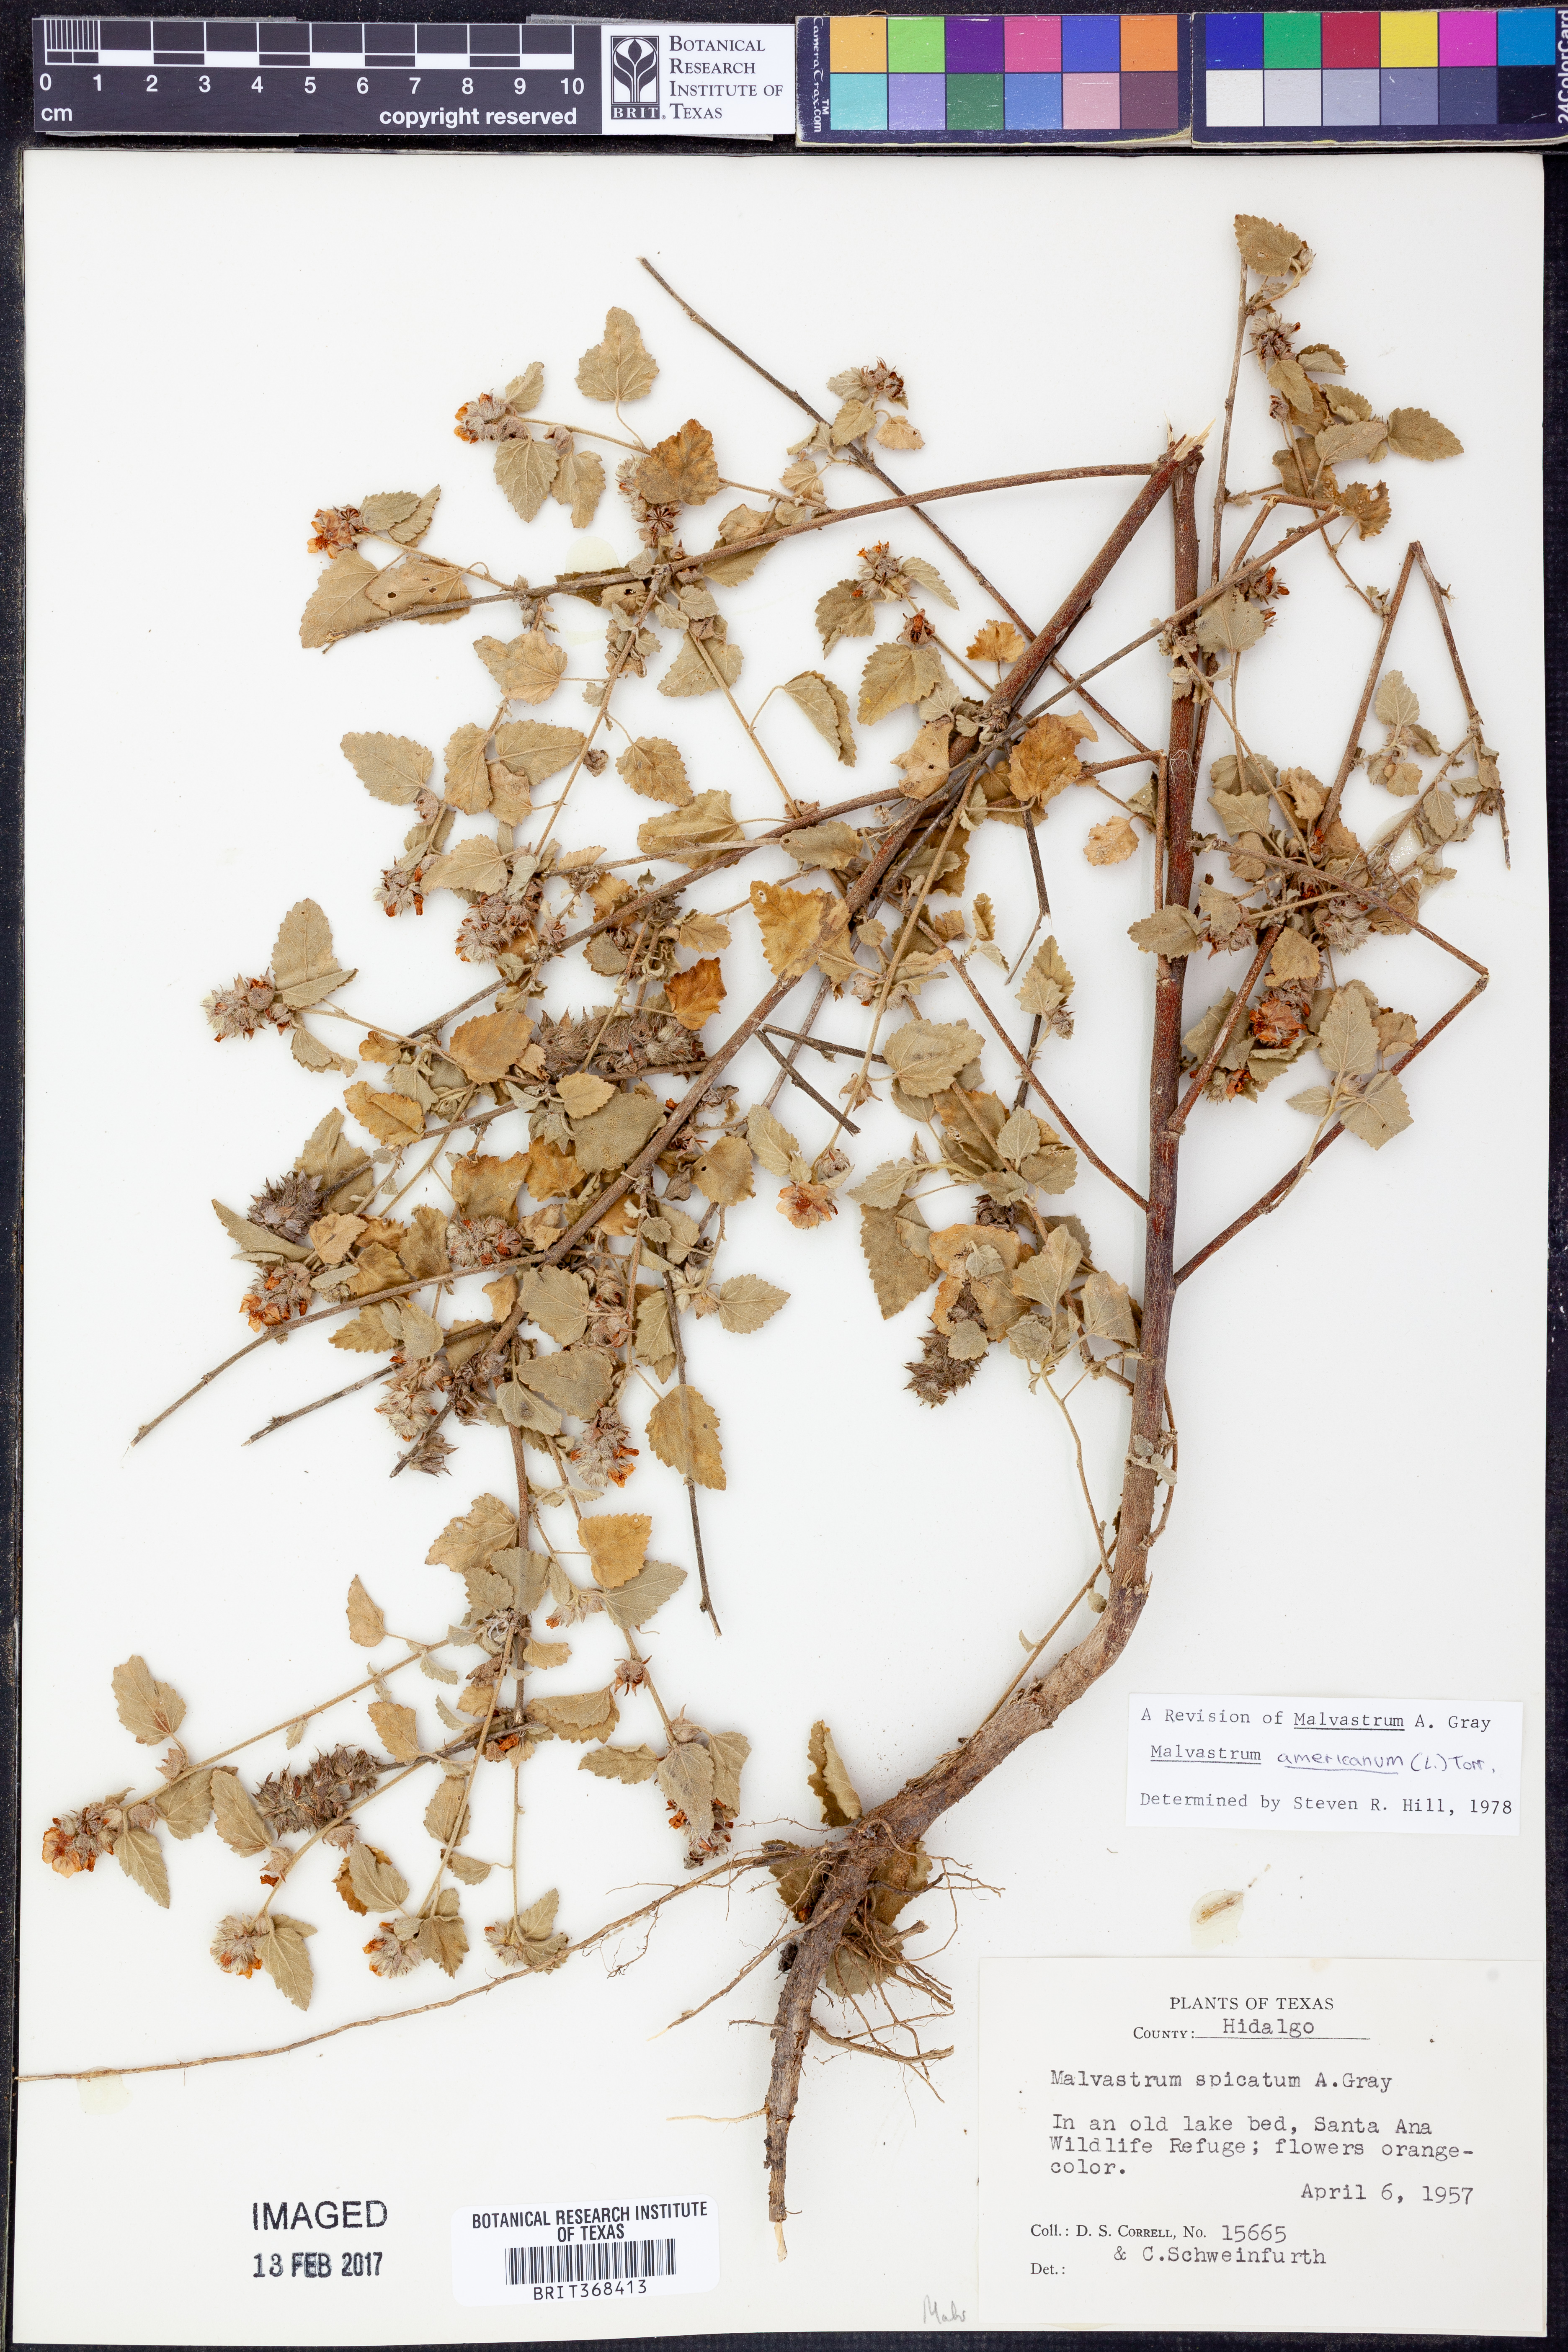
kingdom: Plantae
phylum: Tracheophyta
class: Magnoliopsida
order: Malvales
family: Malvaceae
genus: Malvastrum
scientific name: Malvastrum americanum
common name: Spiked malvastrum
